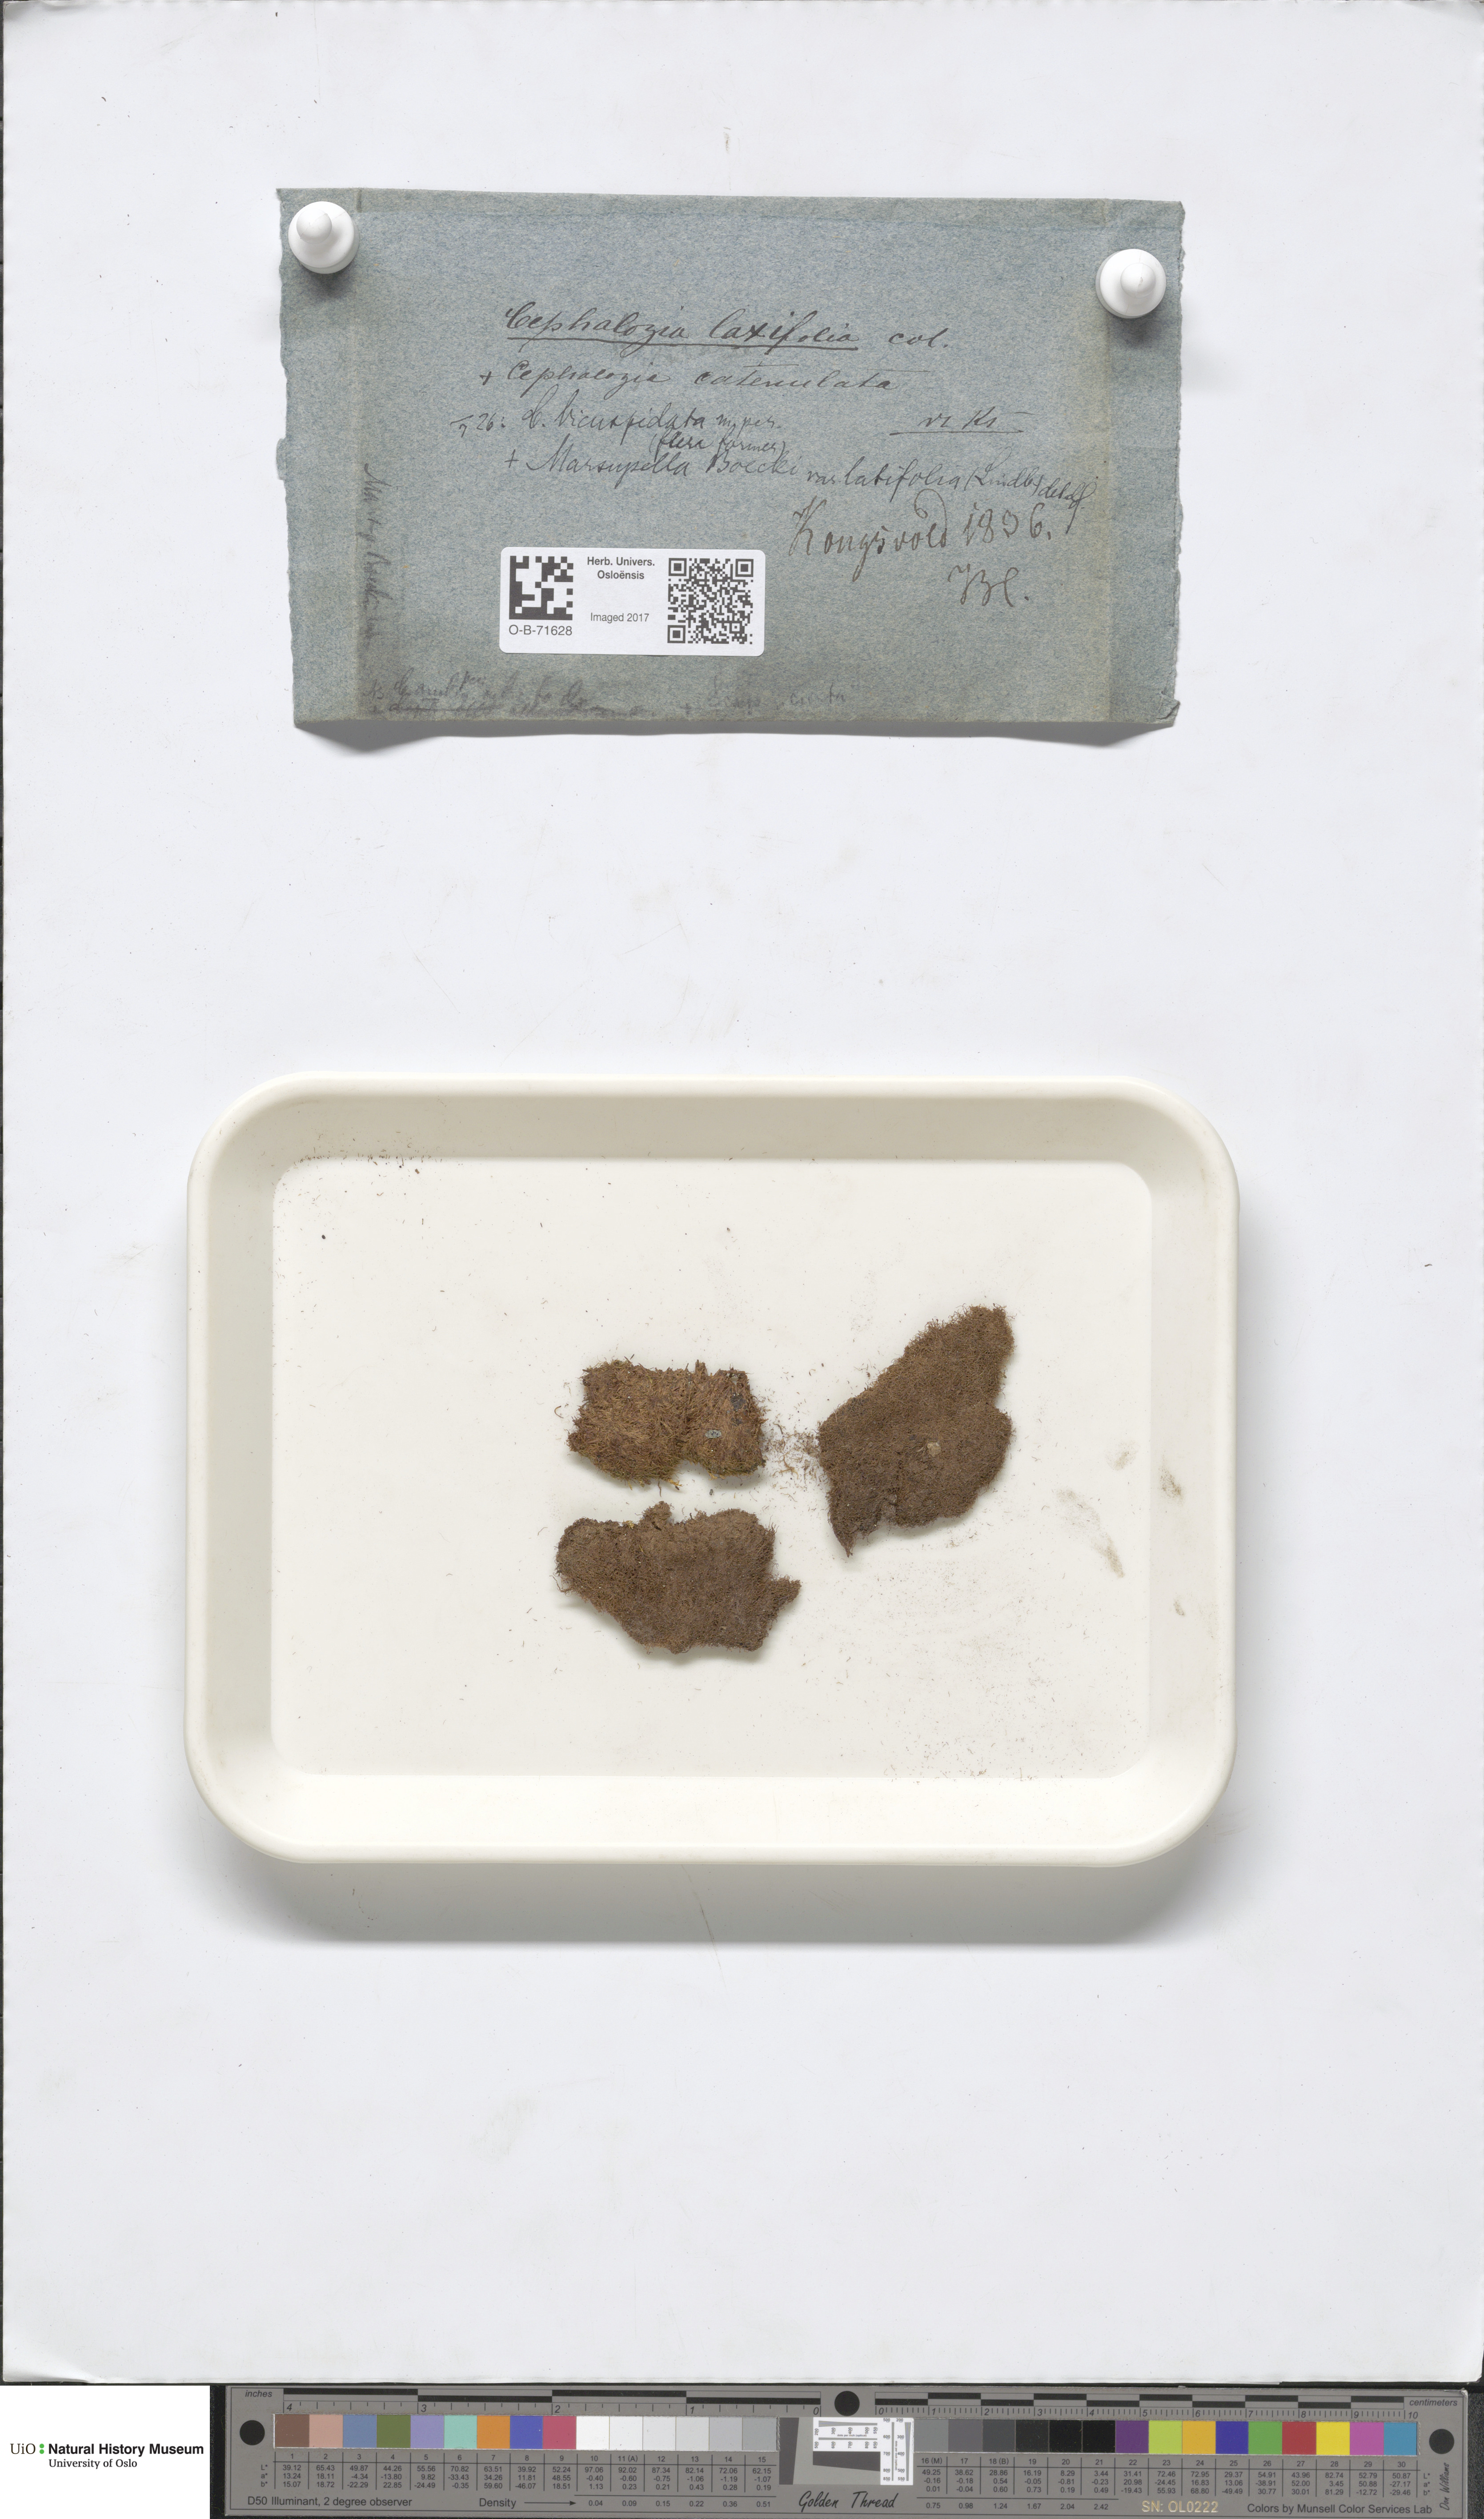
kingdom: Plantae
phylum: Marchantiophyta
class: Jungermanniopsida
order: Jungermanniales
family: Cephaloziaceae
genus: Cephalozia
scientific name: Cephalozia bicuspidata
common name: Two-horned pincerwort
